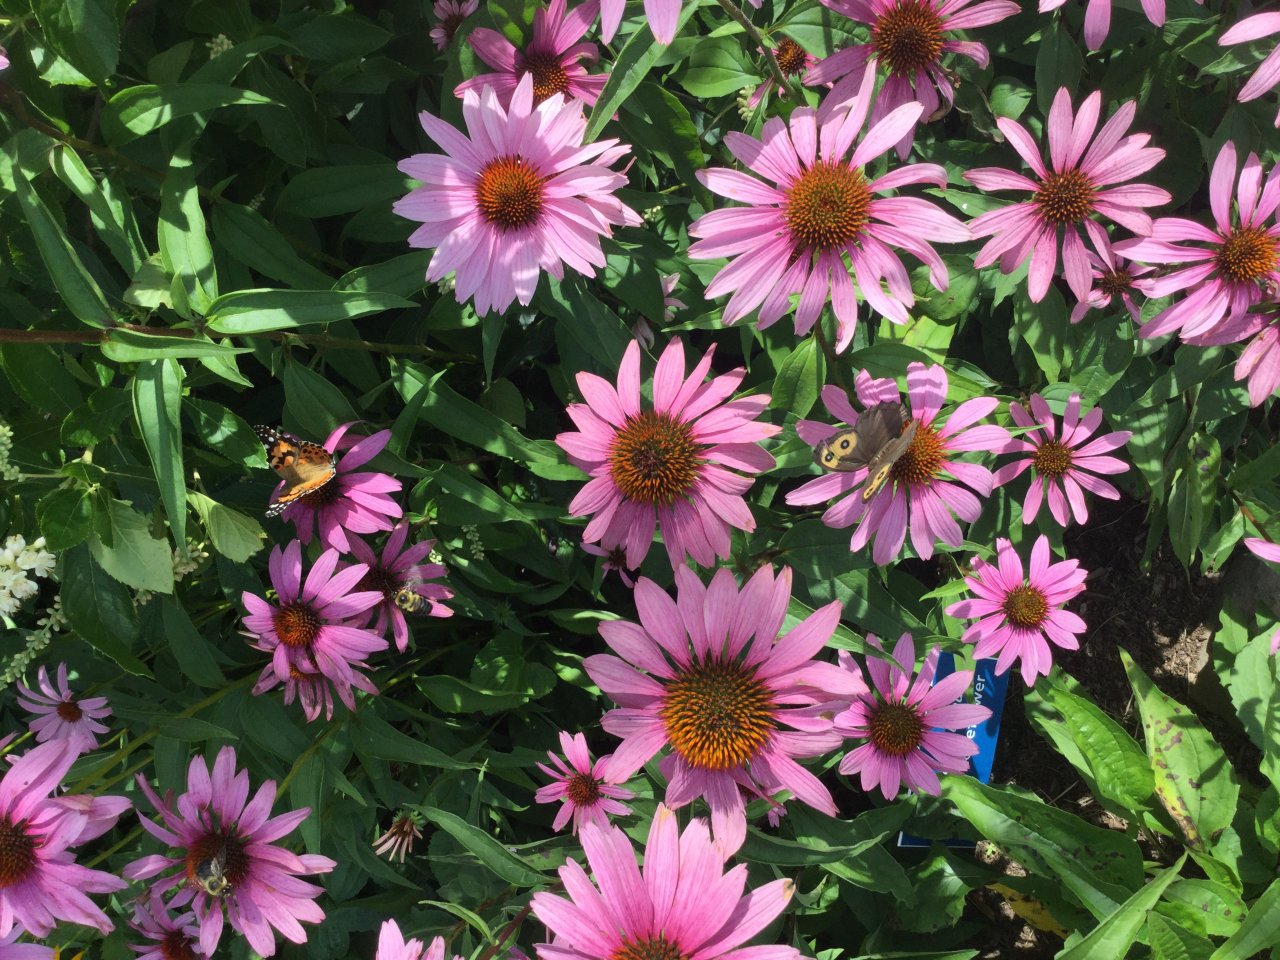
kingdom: Animalia
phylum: Arthropoda
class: Insecta
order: Lepidoptera
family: Nymphalidae
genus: Vanessa
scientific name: Vanessa cardui
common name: Painted Lady
